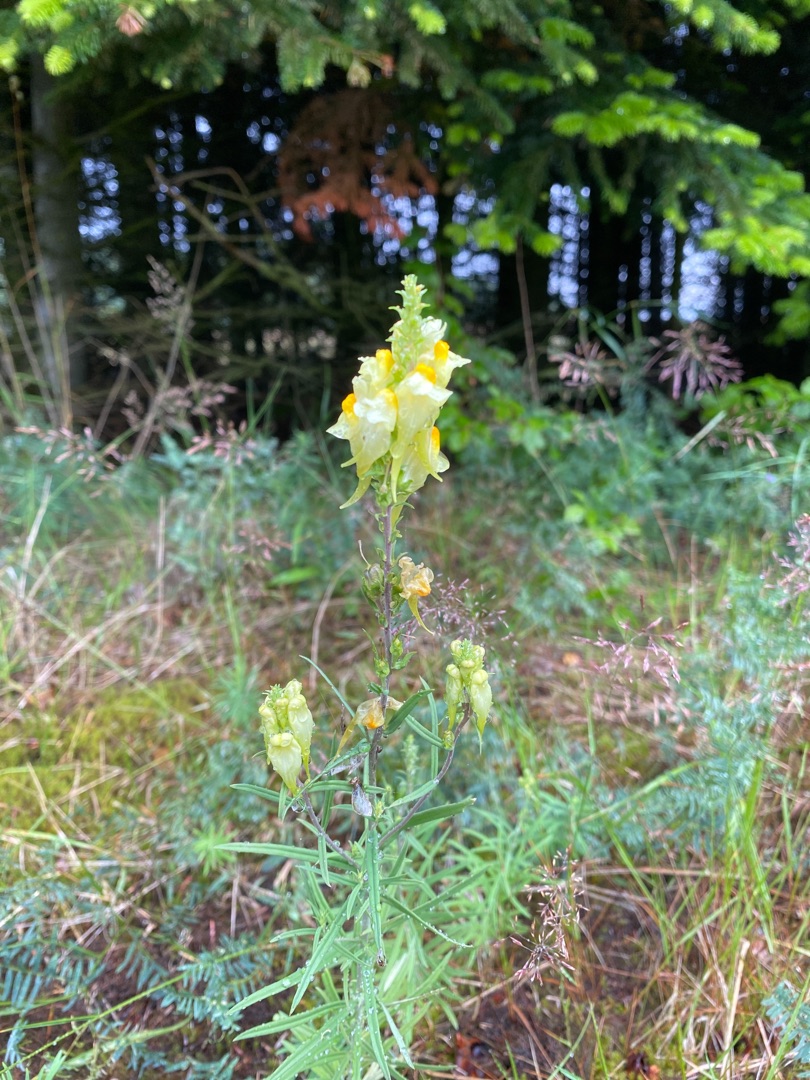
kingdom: Plantae
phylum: Tracheophyta
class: Magnoliopsida
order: Lamiales
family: Plantaginaceae
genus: Linaria
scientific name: Linaria vulgaris
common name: Almindelig torskemund
